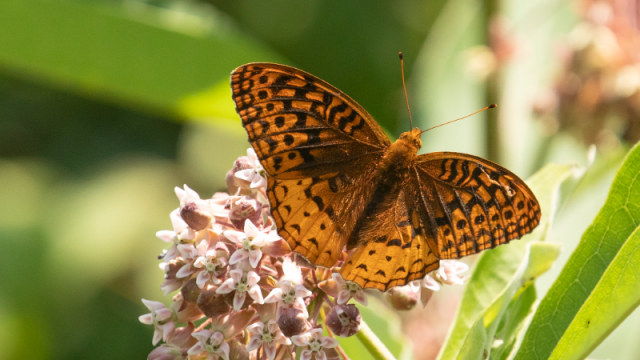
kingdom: Animalia
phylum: Arthropoda
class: Insecta
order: Lepidoptera
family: Nymphalidae
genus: Speyeria
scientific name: Speyeria cybele
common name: Great Spangled Fritillary
